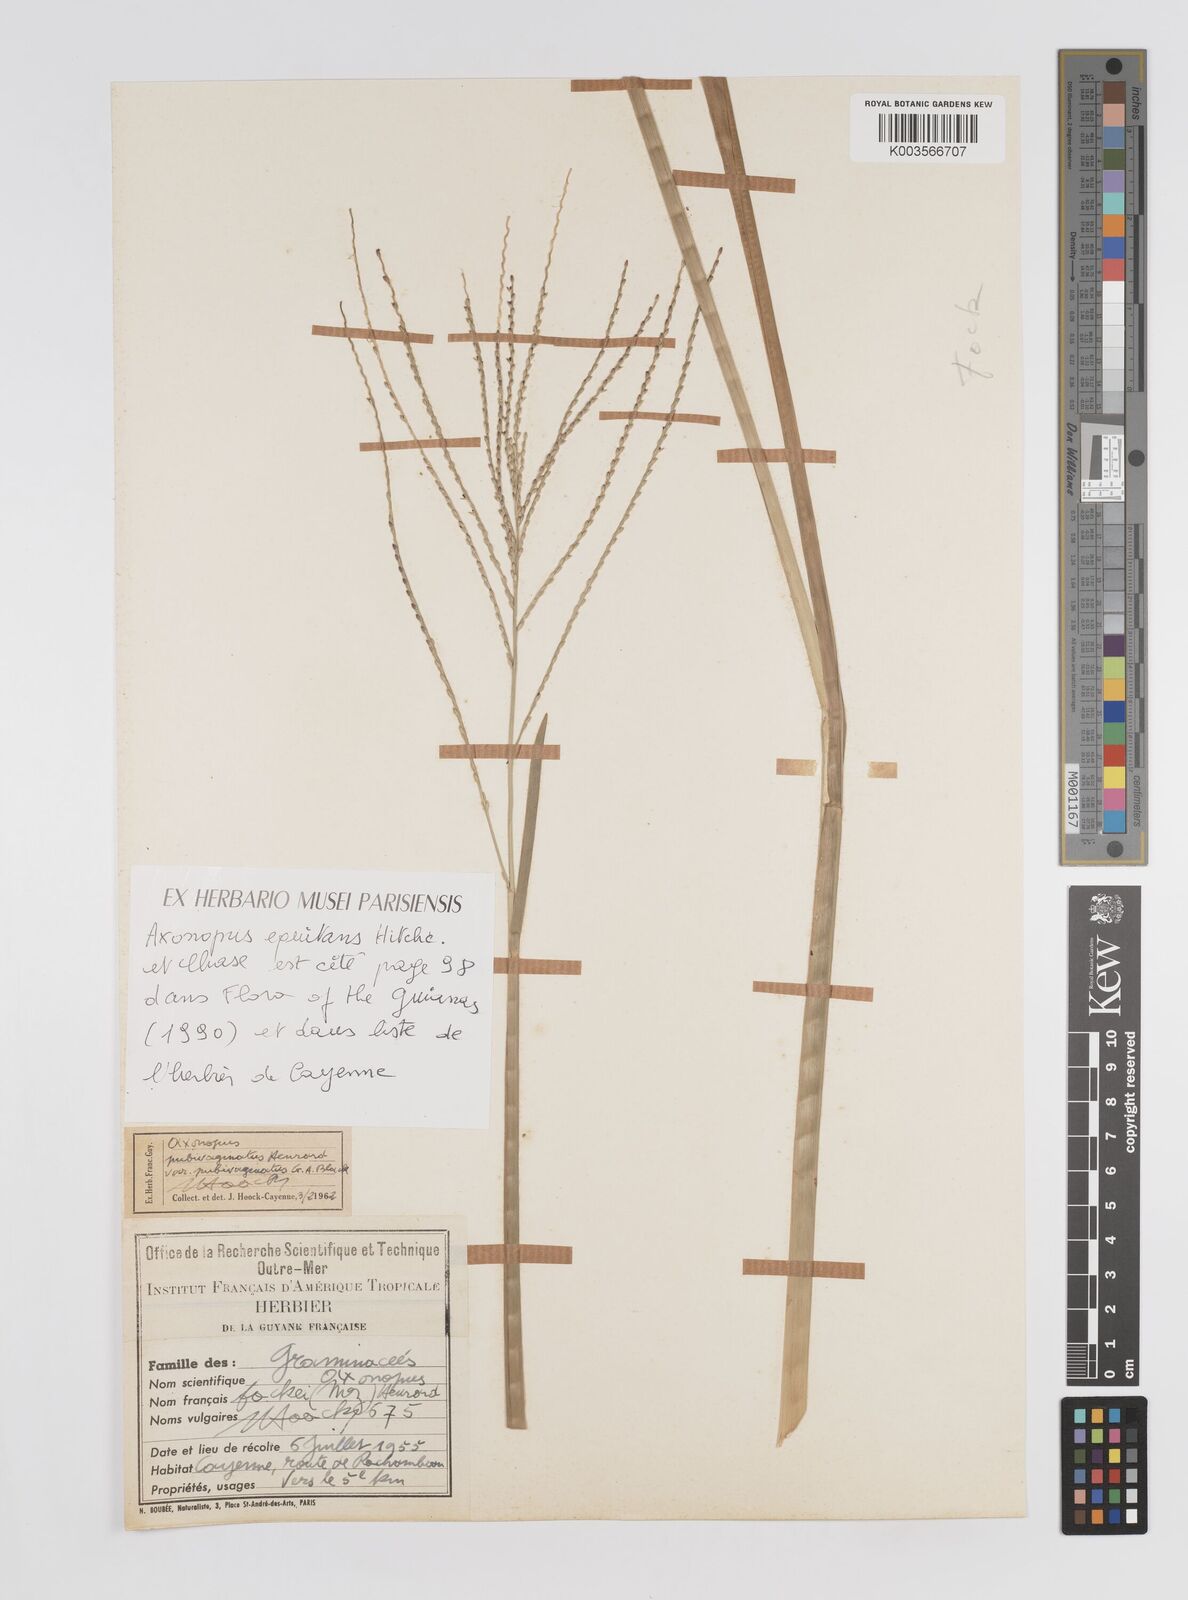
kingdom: Plantae
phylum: Tracheophyta
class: Liliopsida
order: Poales
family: Poaceae
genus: Axonopus
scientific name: Axonopus equitans
